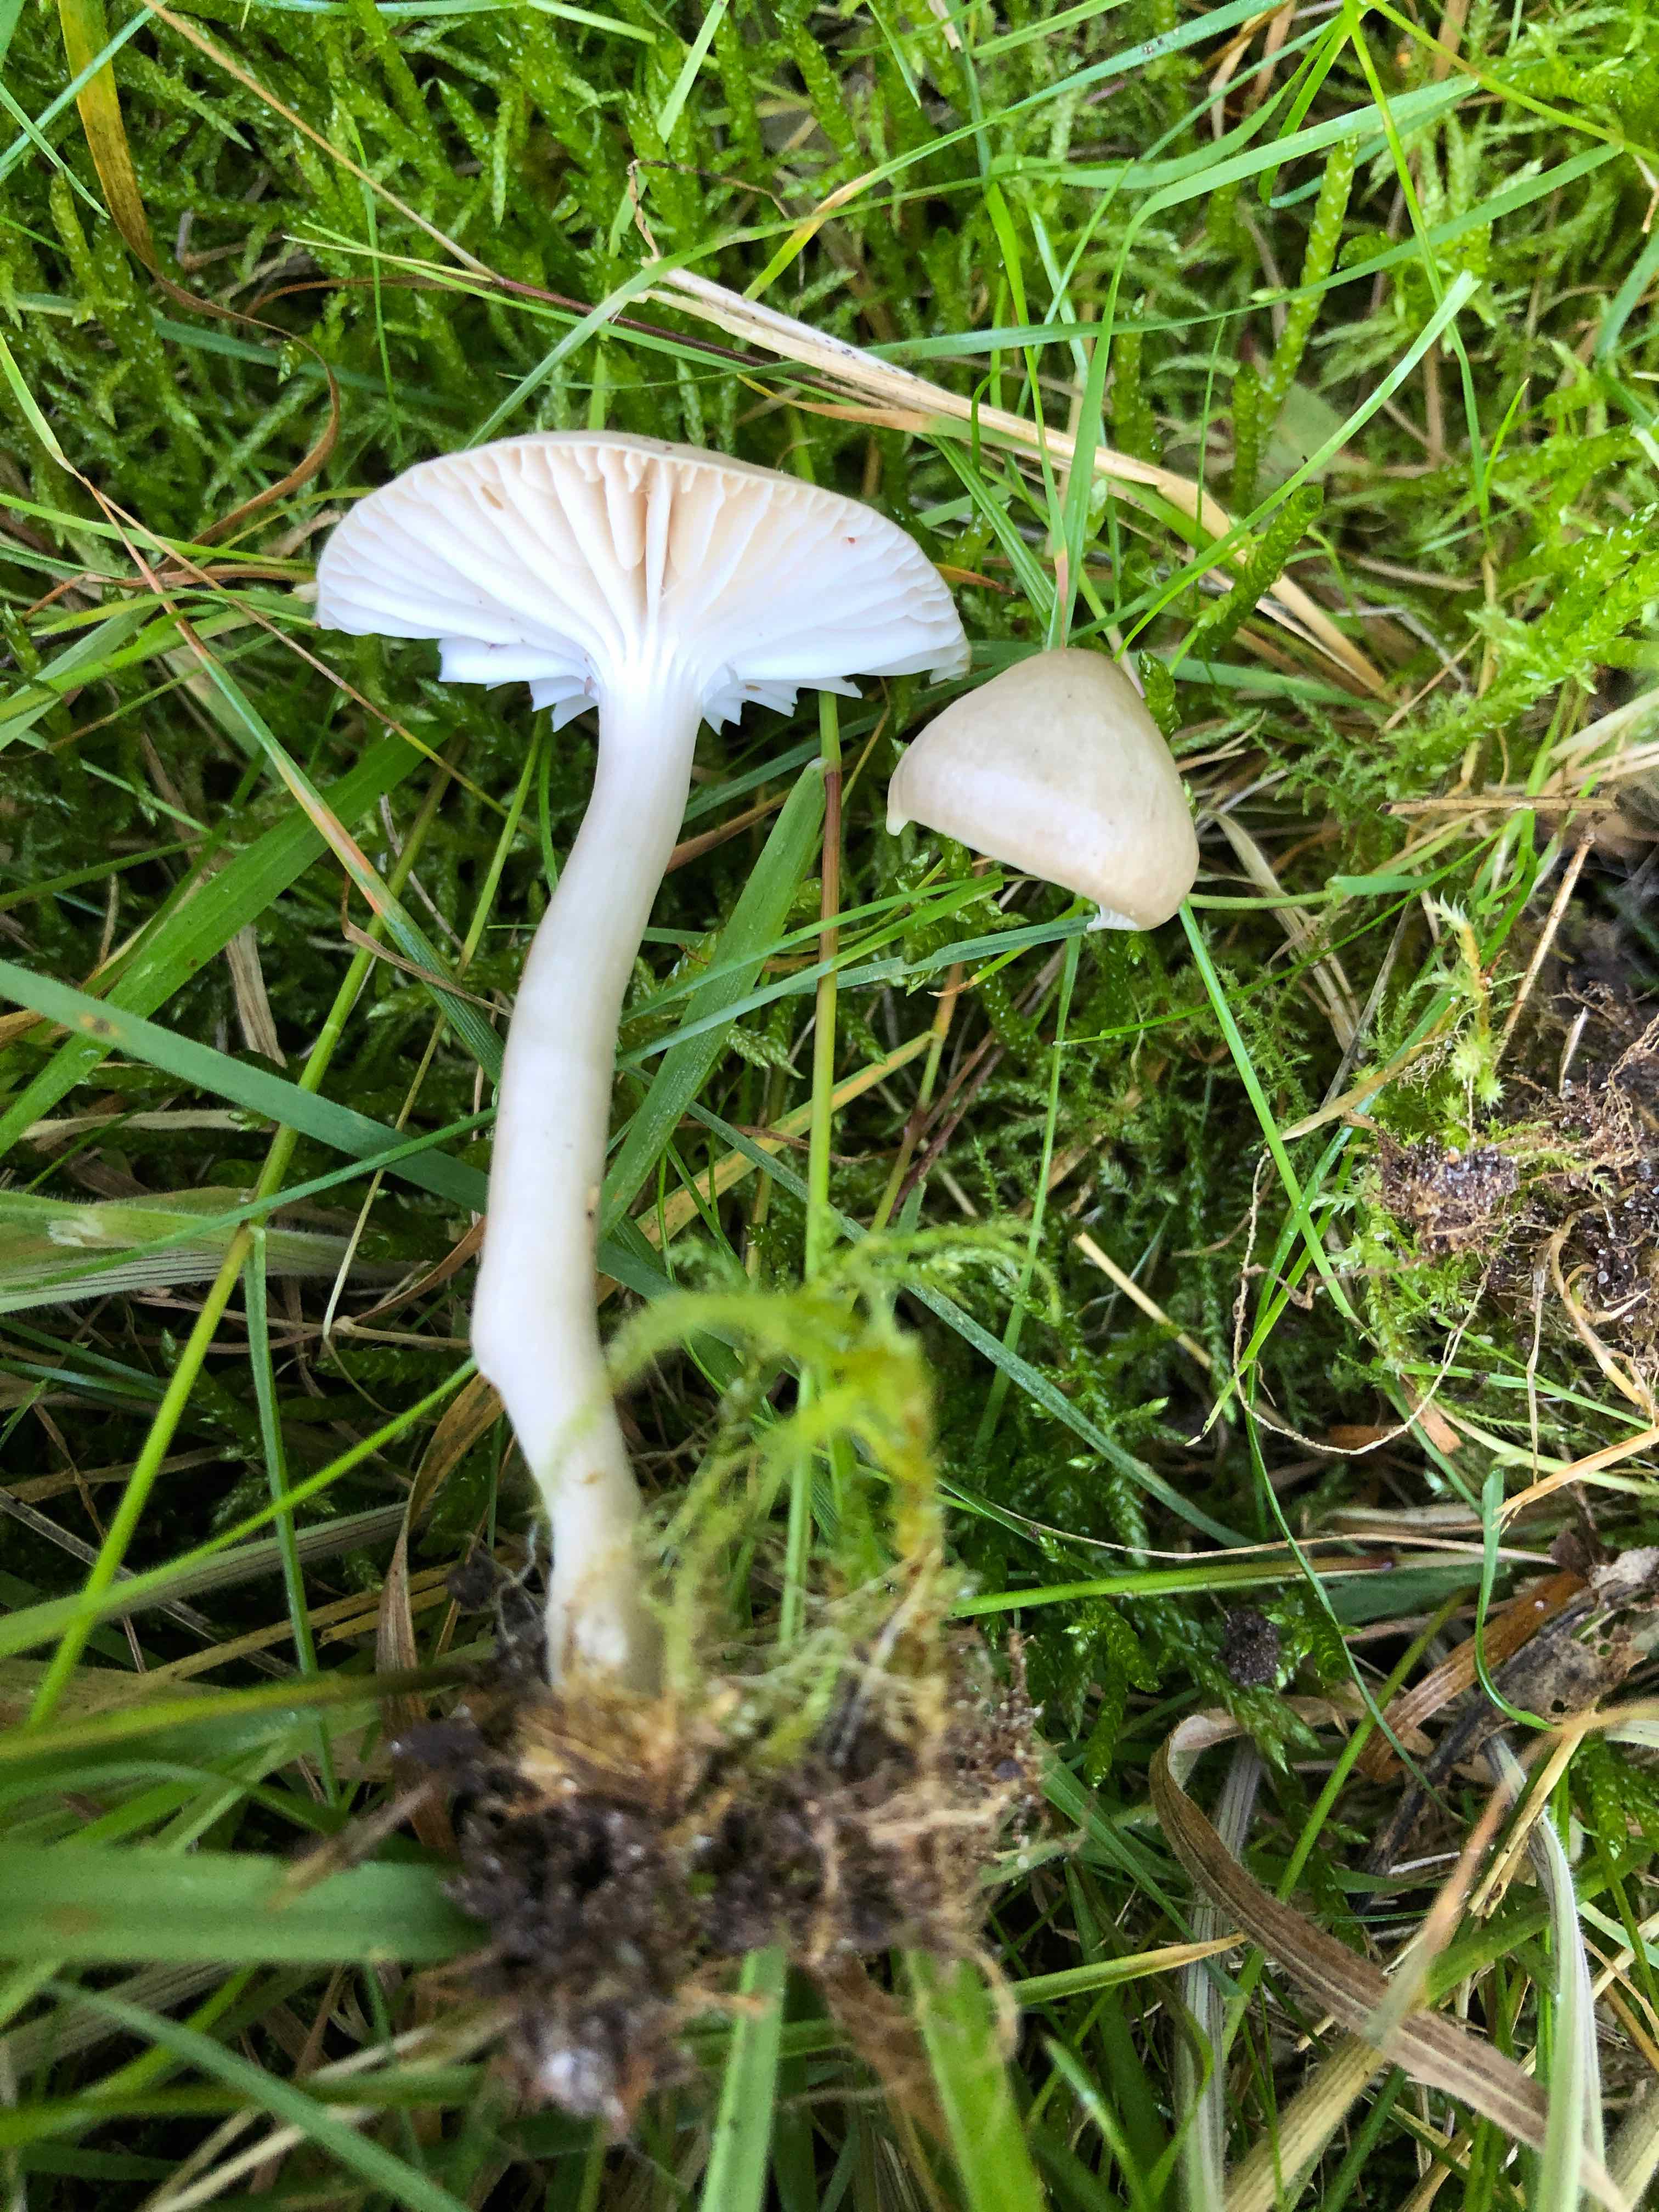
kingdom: Fungi
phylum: Basidiomycota
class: Agaricomycetes
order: Agaricales
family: Hygrophoraceae
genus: Gliophorus
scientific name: Gliophorus irrigatus
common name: slimet vokshat
